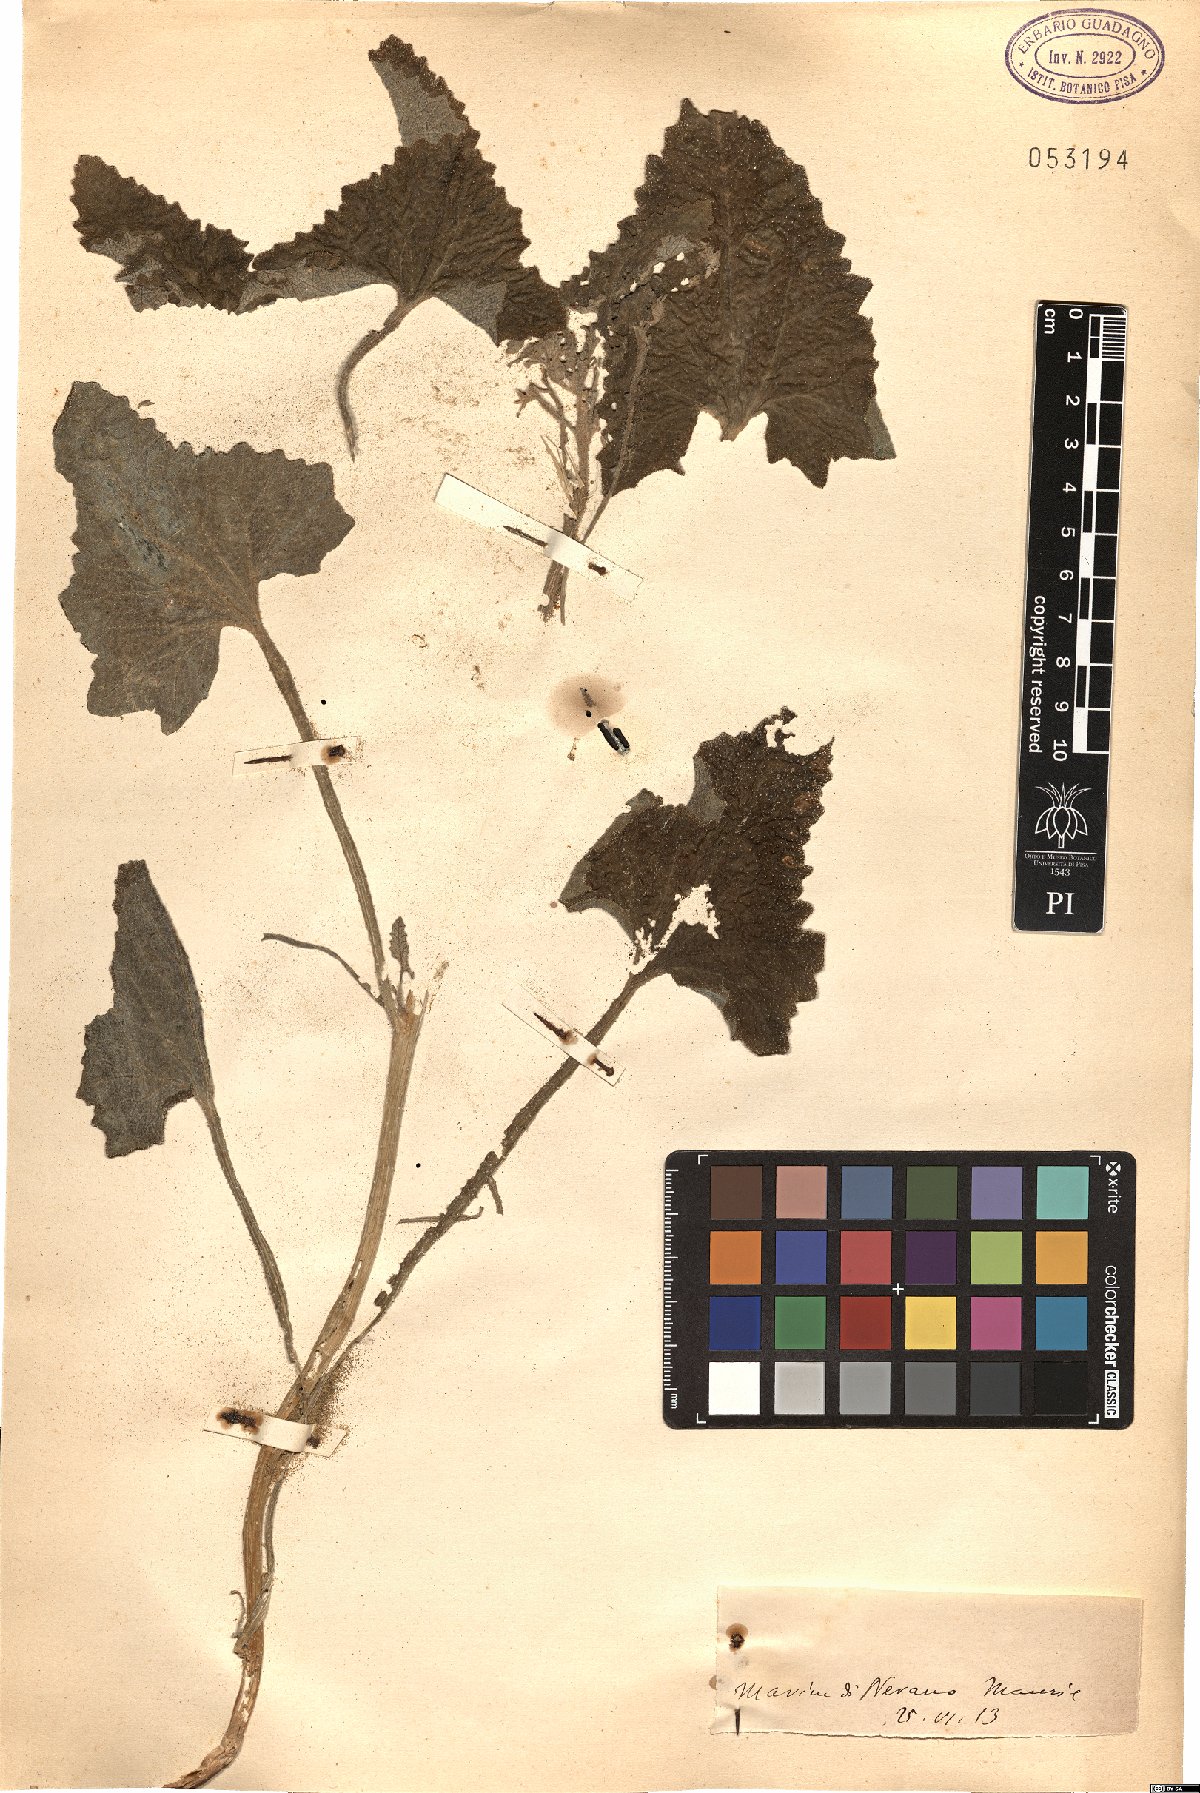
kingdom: Plantae
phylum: Tracheophyta
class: Magnoliopsida
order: Cucurbitales
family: Cucurbitaceae
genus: Ecballium
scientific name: Ecballium
